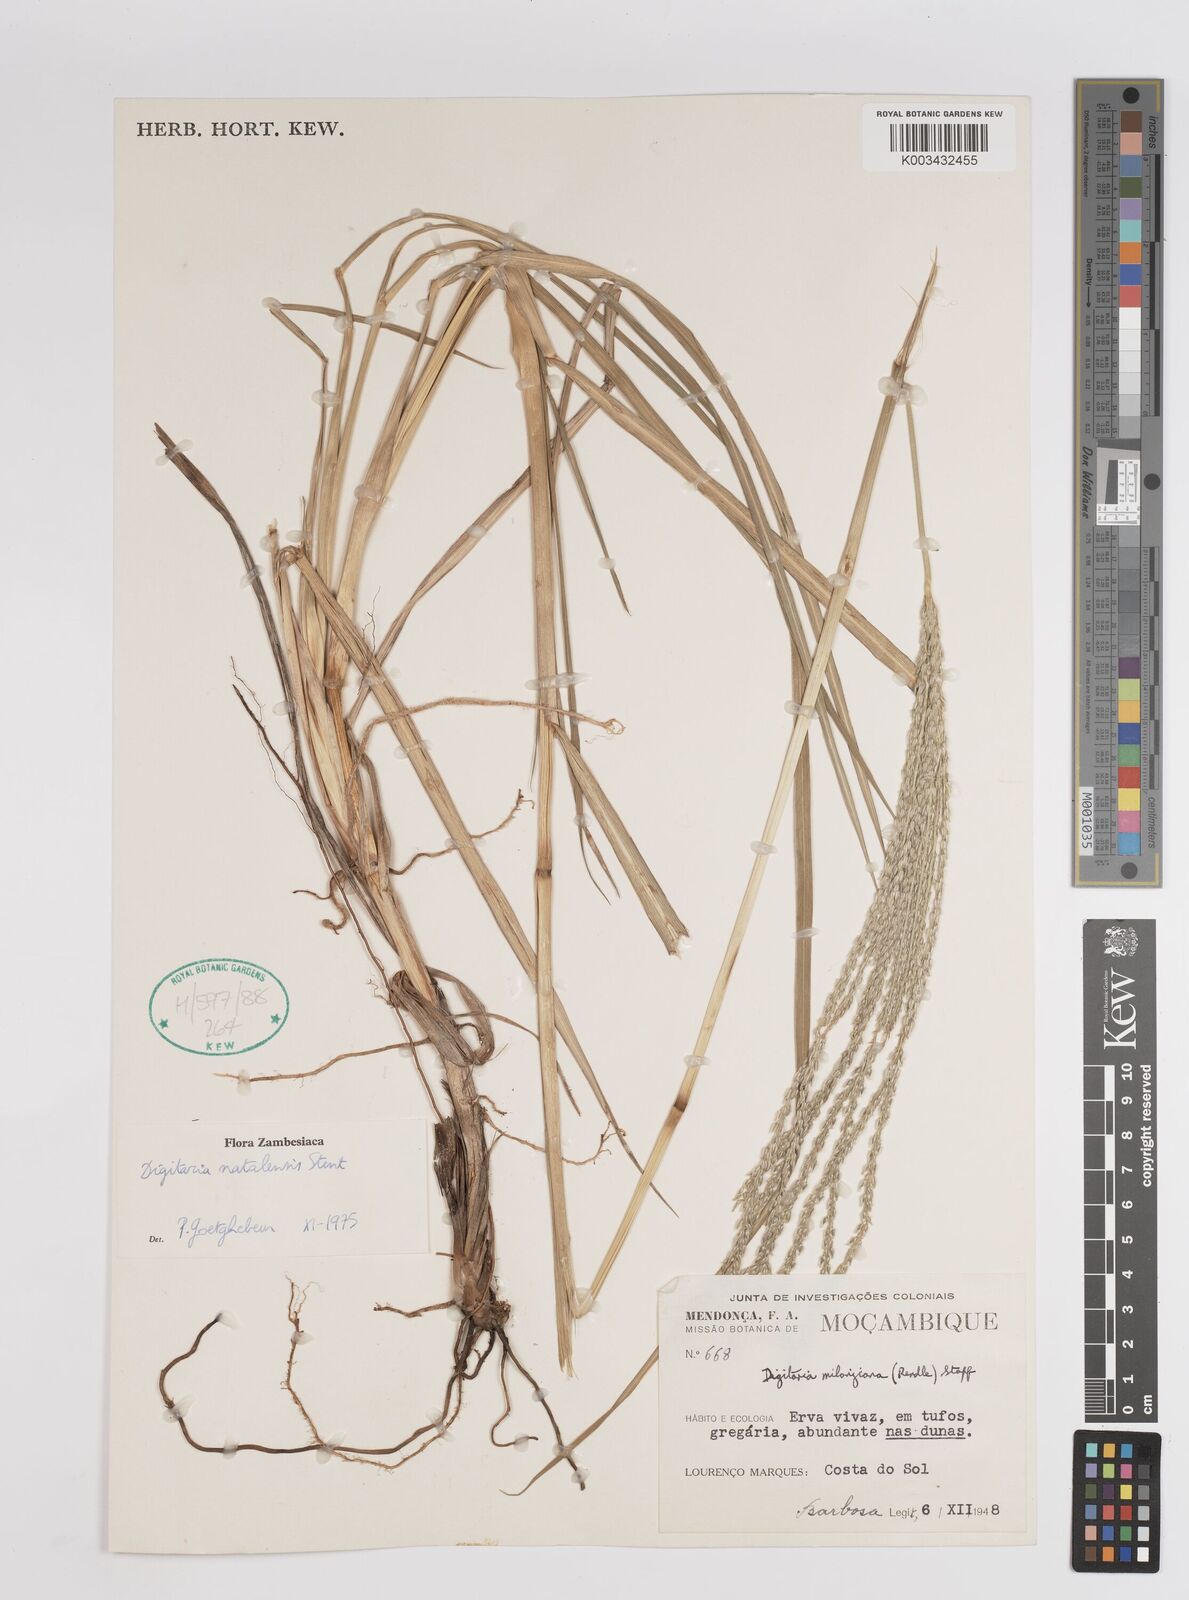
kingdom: Plantae
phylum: Tracheophyta
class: Liliopsida
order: Poales
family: Poaceae
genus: Digitaria
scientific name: Digitaria natalensis
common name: Coast finger grass
